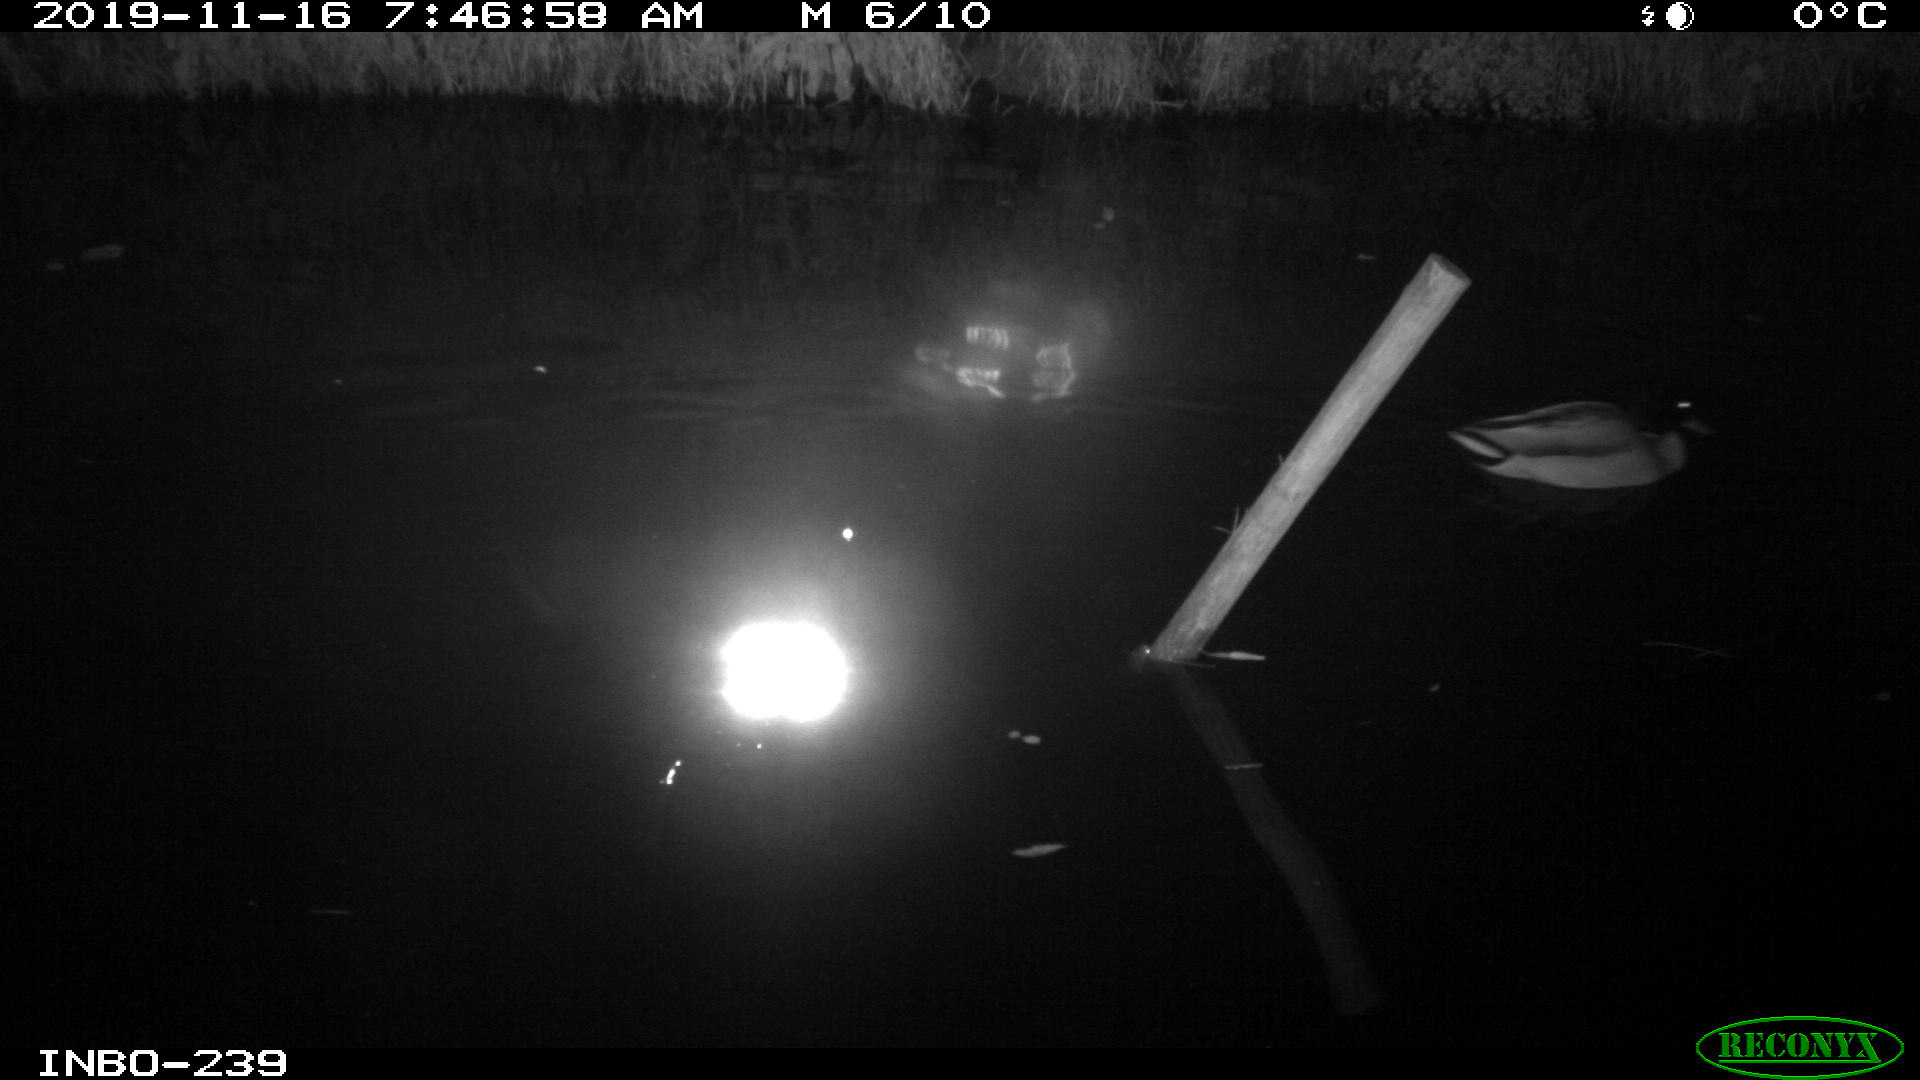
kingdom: Animalia
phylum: Chordata
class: Aves
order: Anseriformes
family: Anatidae
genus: Anas
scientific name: Anas platyrhynchos
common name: Mallard
